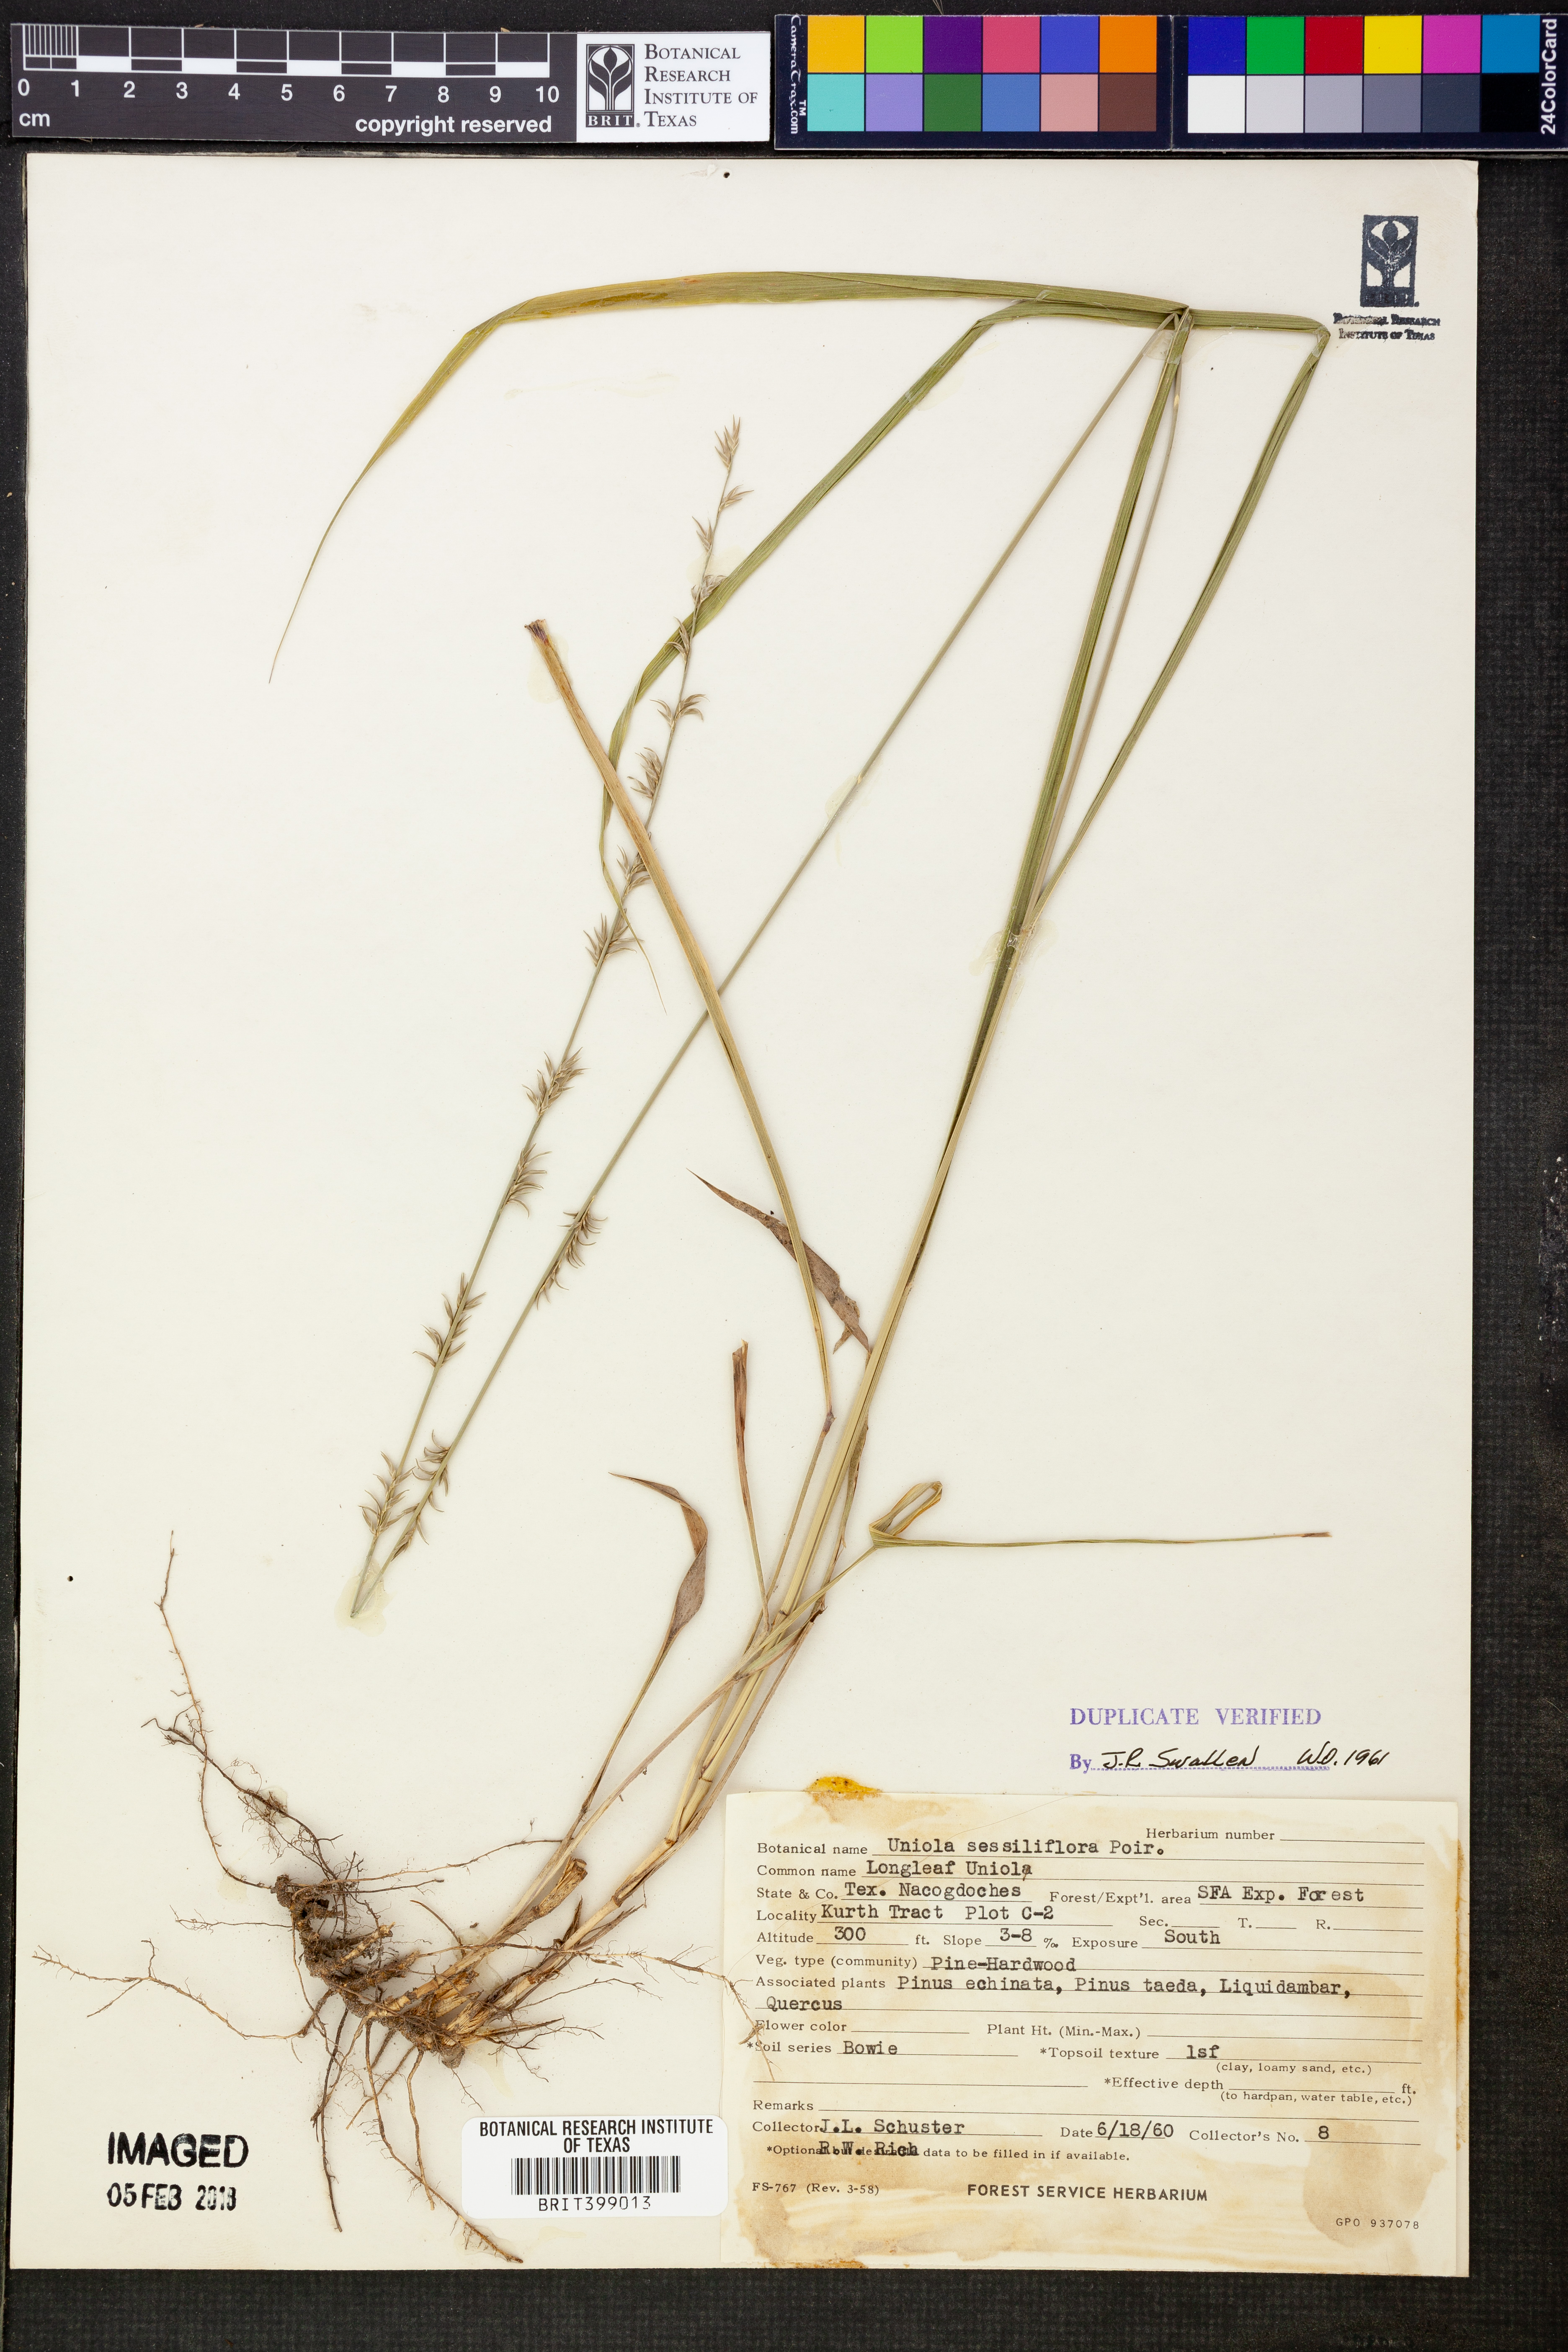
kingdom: Plantae
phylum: Tracheophyta
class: Liliopsida
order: Poales
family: Poaceae
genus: Chasmanthium
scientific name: Chasmanthium laxum
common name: Slender chasmanthium
